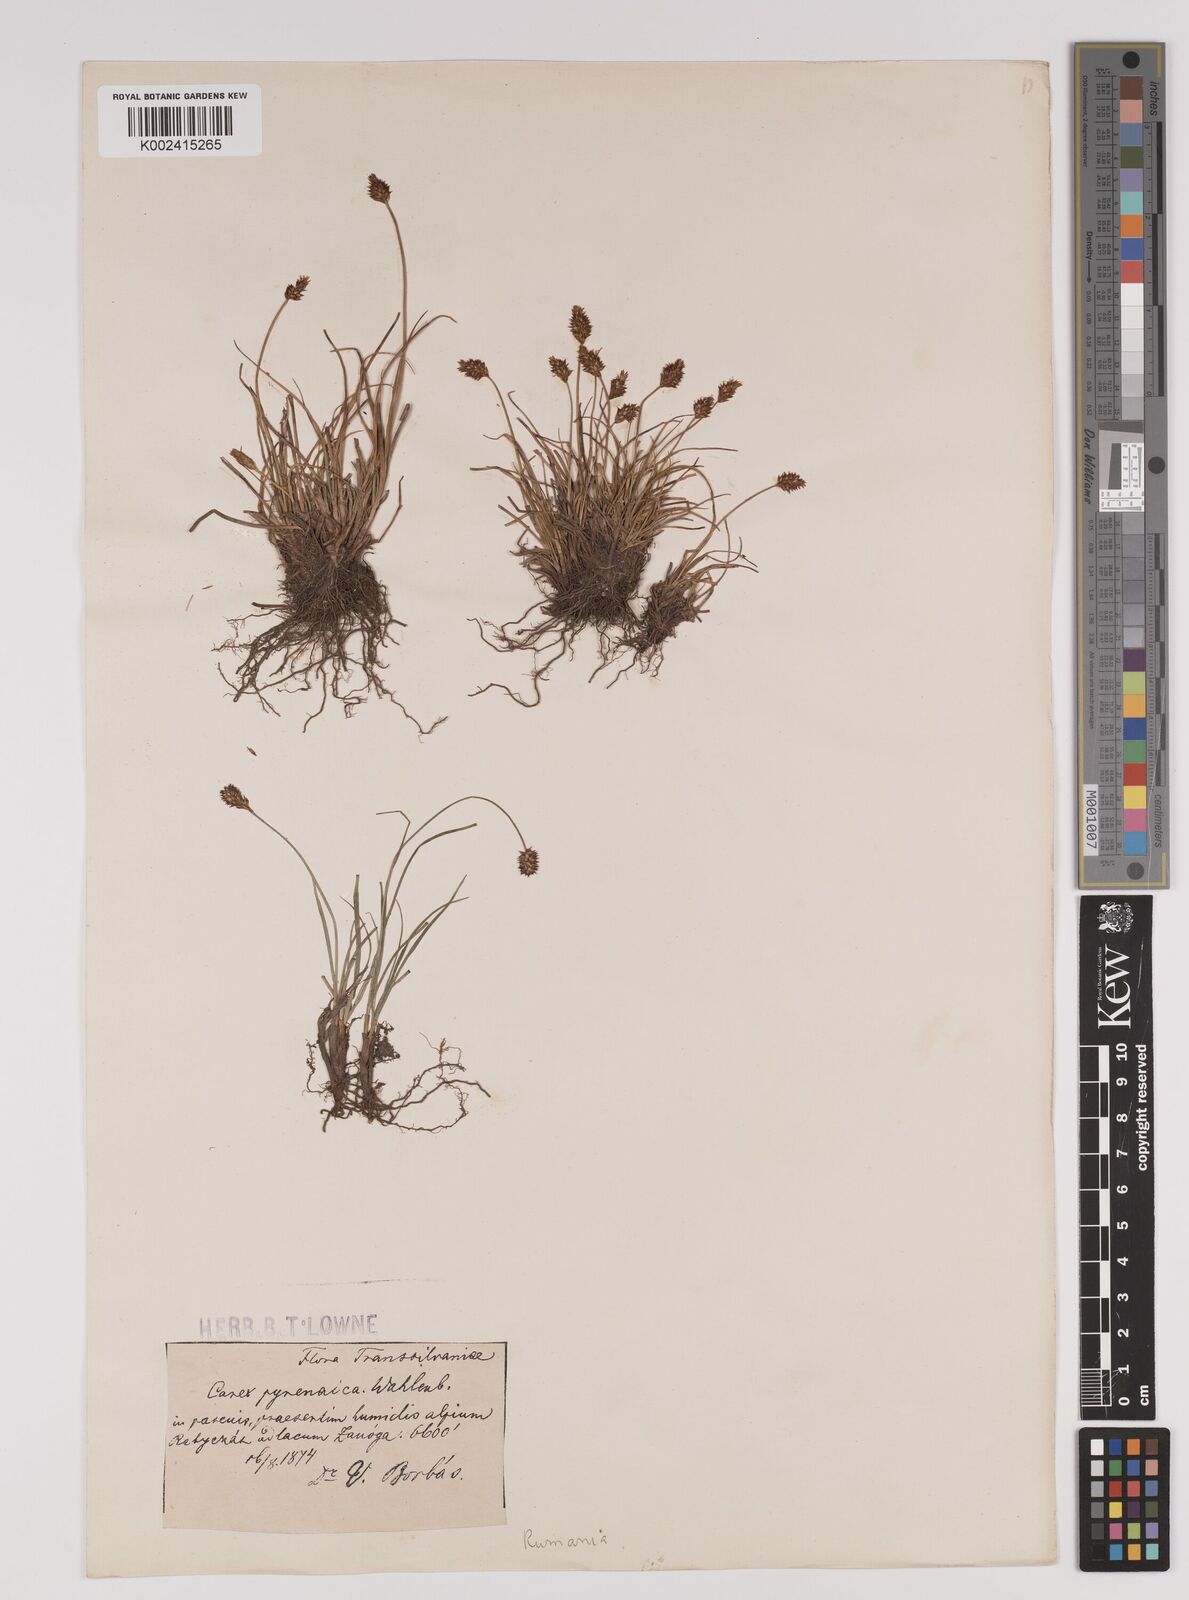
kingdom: Plantae
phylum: Tracheophyta
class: Liliopsida
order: Poales
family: Cyperaceae
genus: Carex
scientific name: Carex pyrenaica
